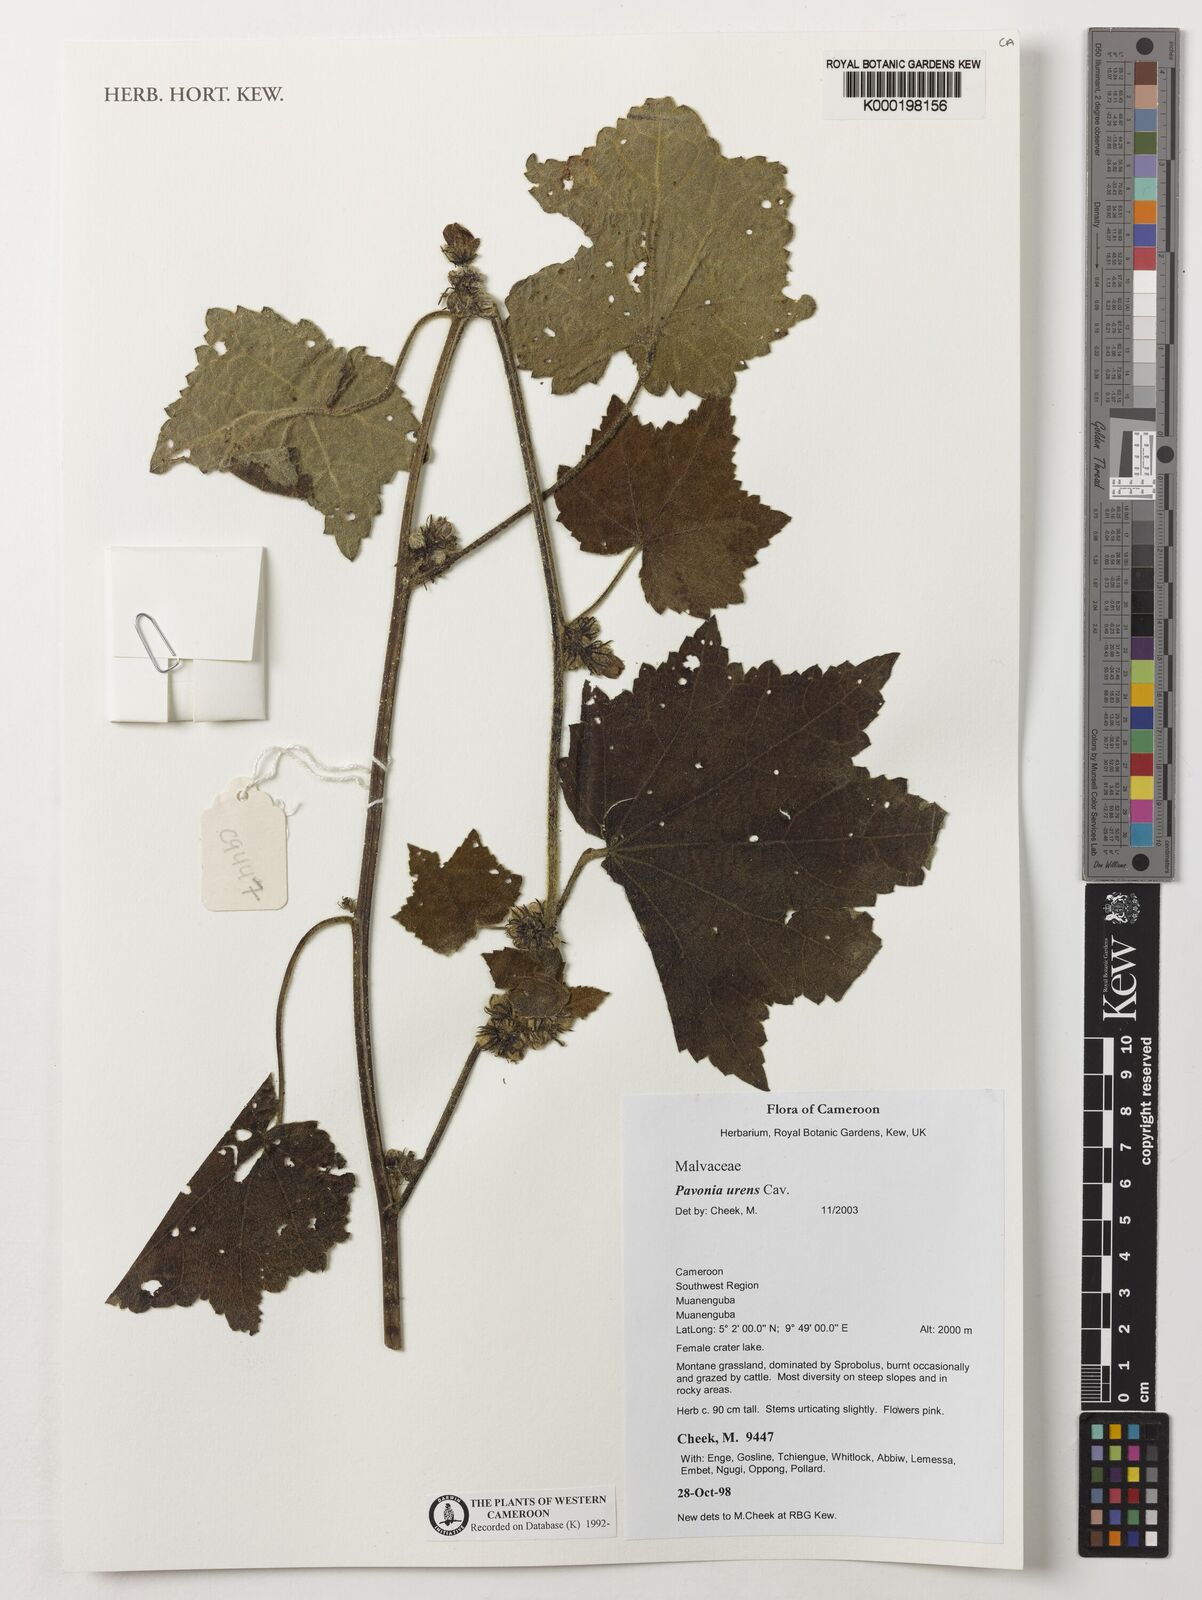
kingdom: Plantae
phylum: Tracheophyta
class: Magnoliopsida
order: Malvales
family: Malvaceae
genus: Pavonia
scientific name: Pavonia urens
